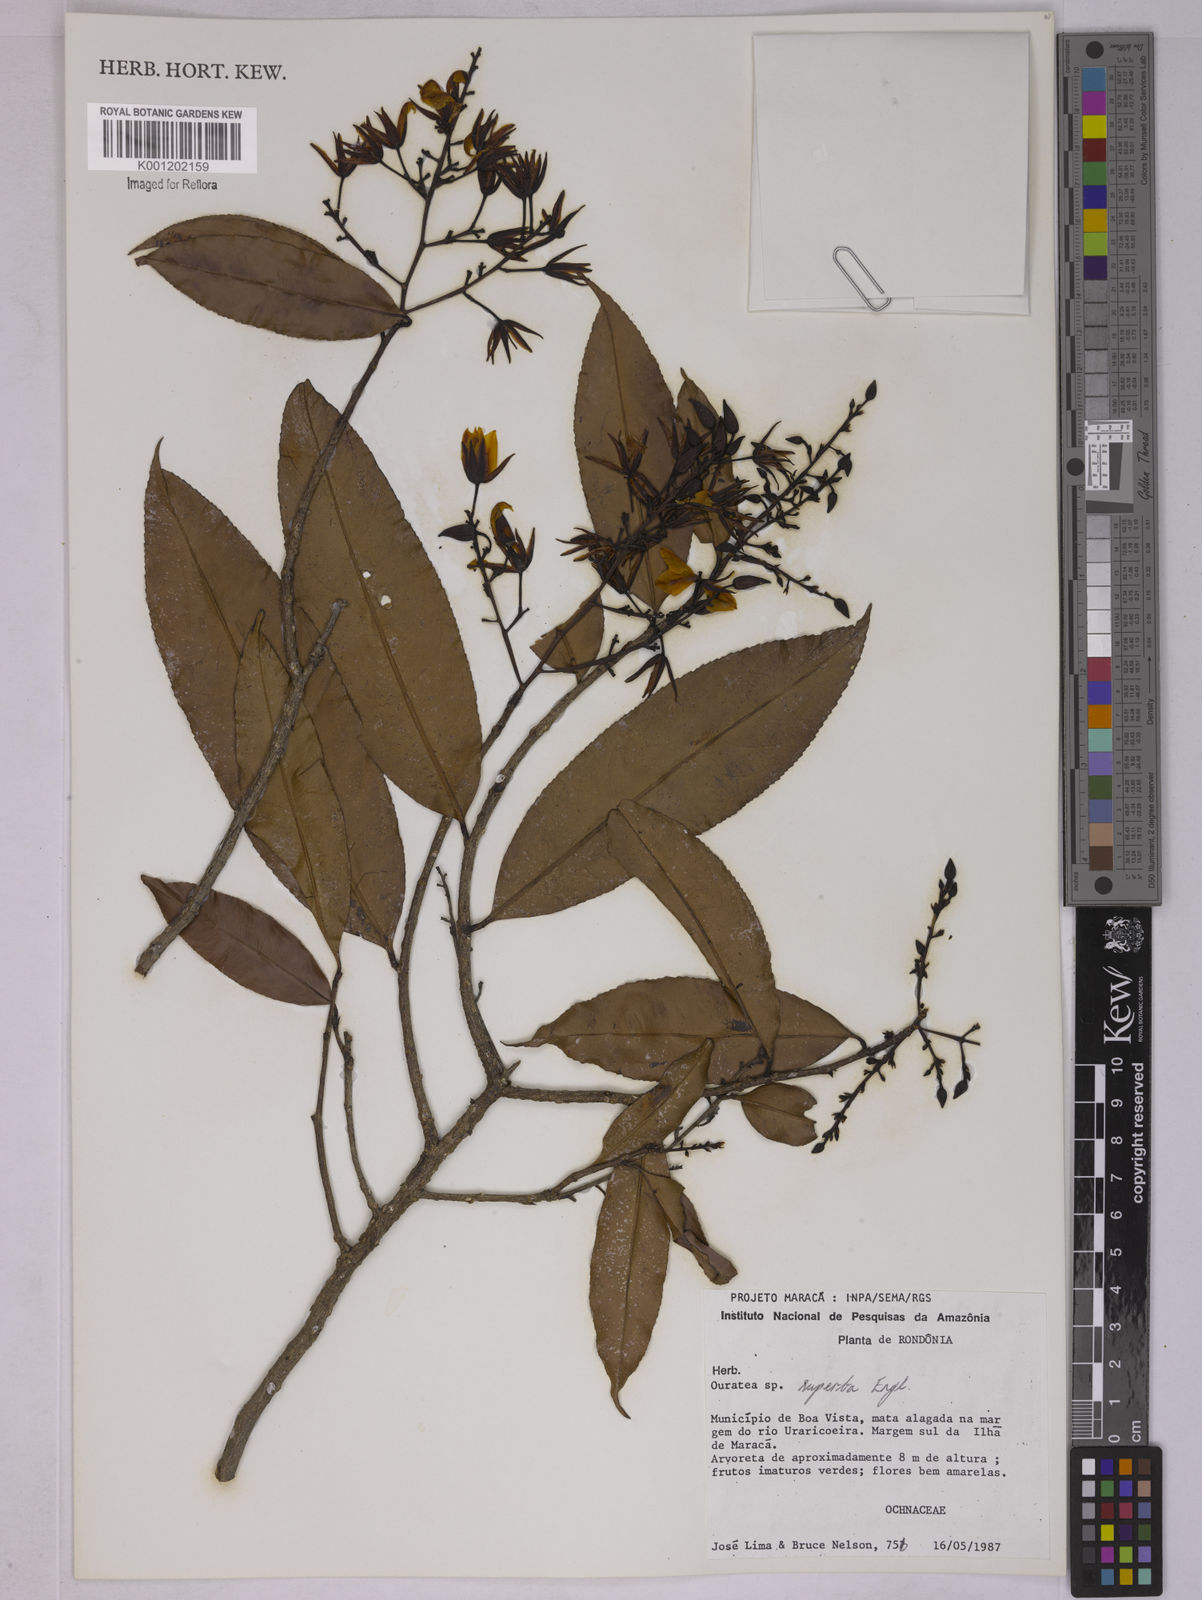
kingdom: Plantae
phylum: Tracheophyta
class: Magnoliopsida
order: Malpighiales
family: Ochnaceae
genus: Ouratea
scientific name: Ouratea superba
